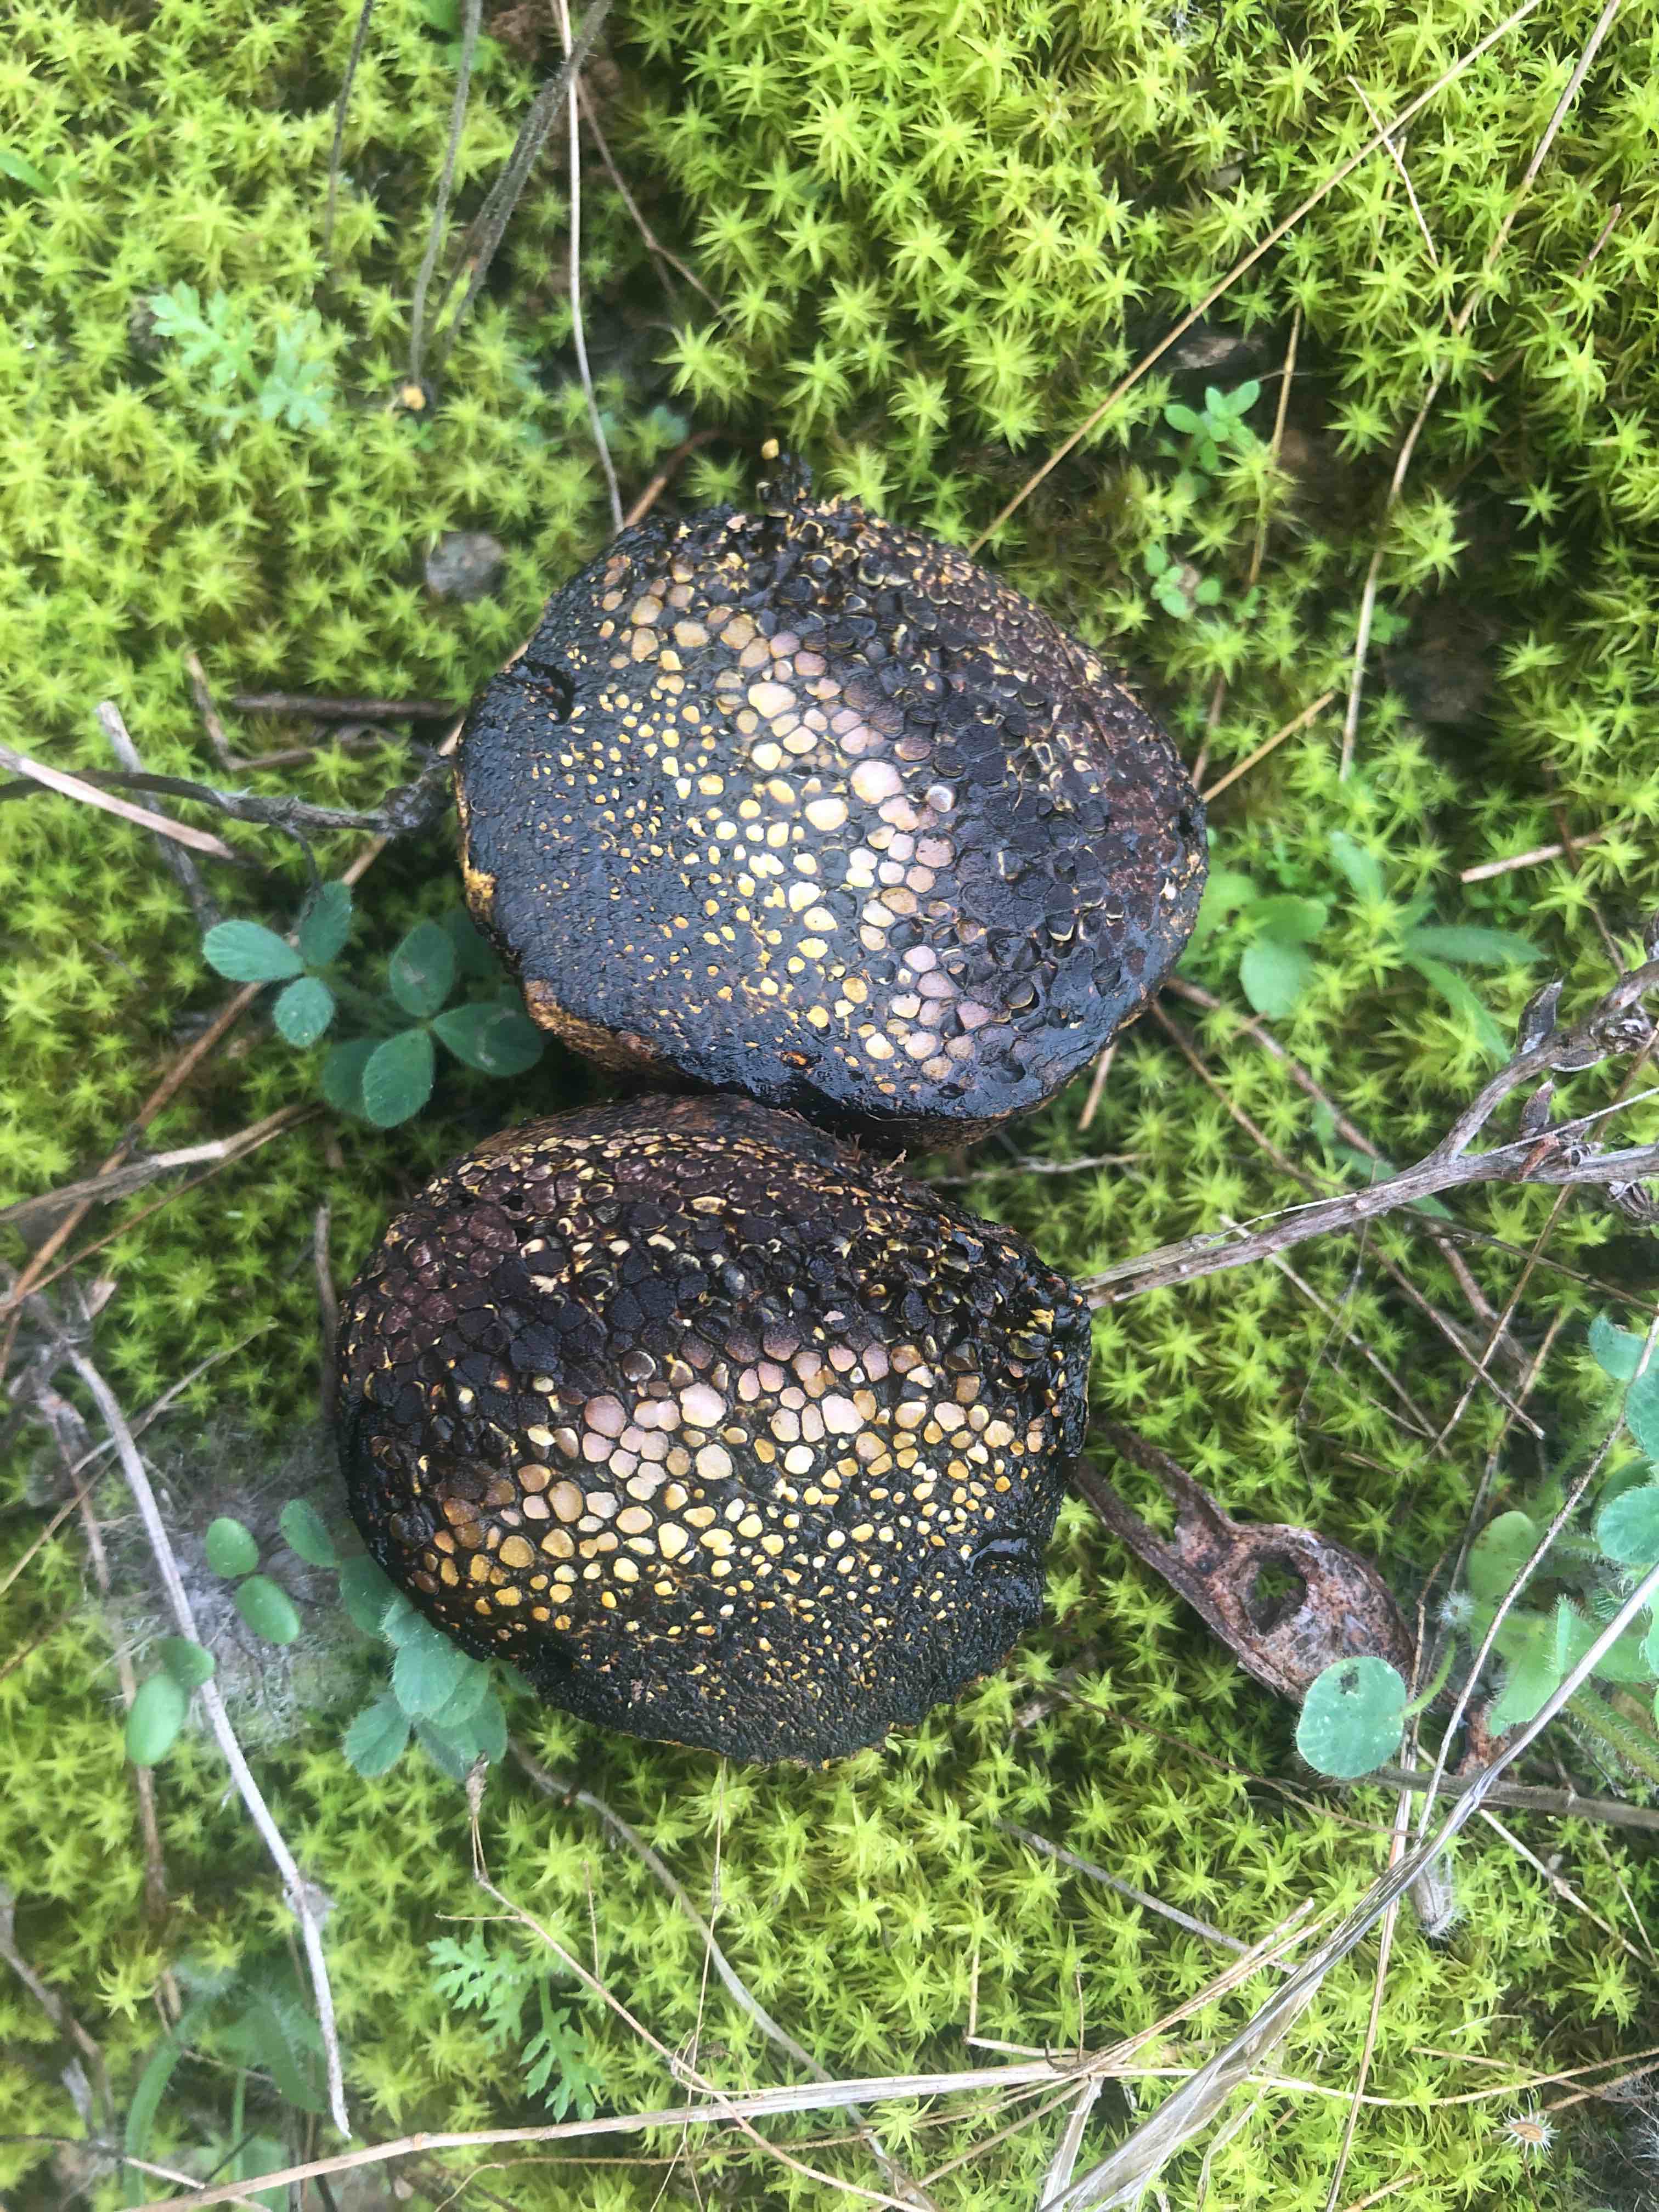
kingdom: Fungi
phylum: Basidiomycota
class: Agaricomycetes
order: Boletales
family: Sclerodermataceae
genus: Pisolithus
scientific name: Pisolithus
